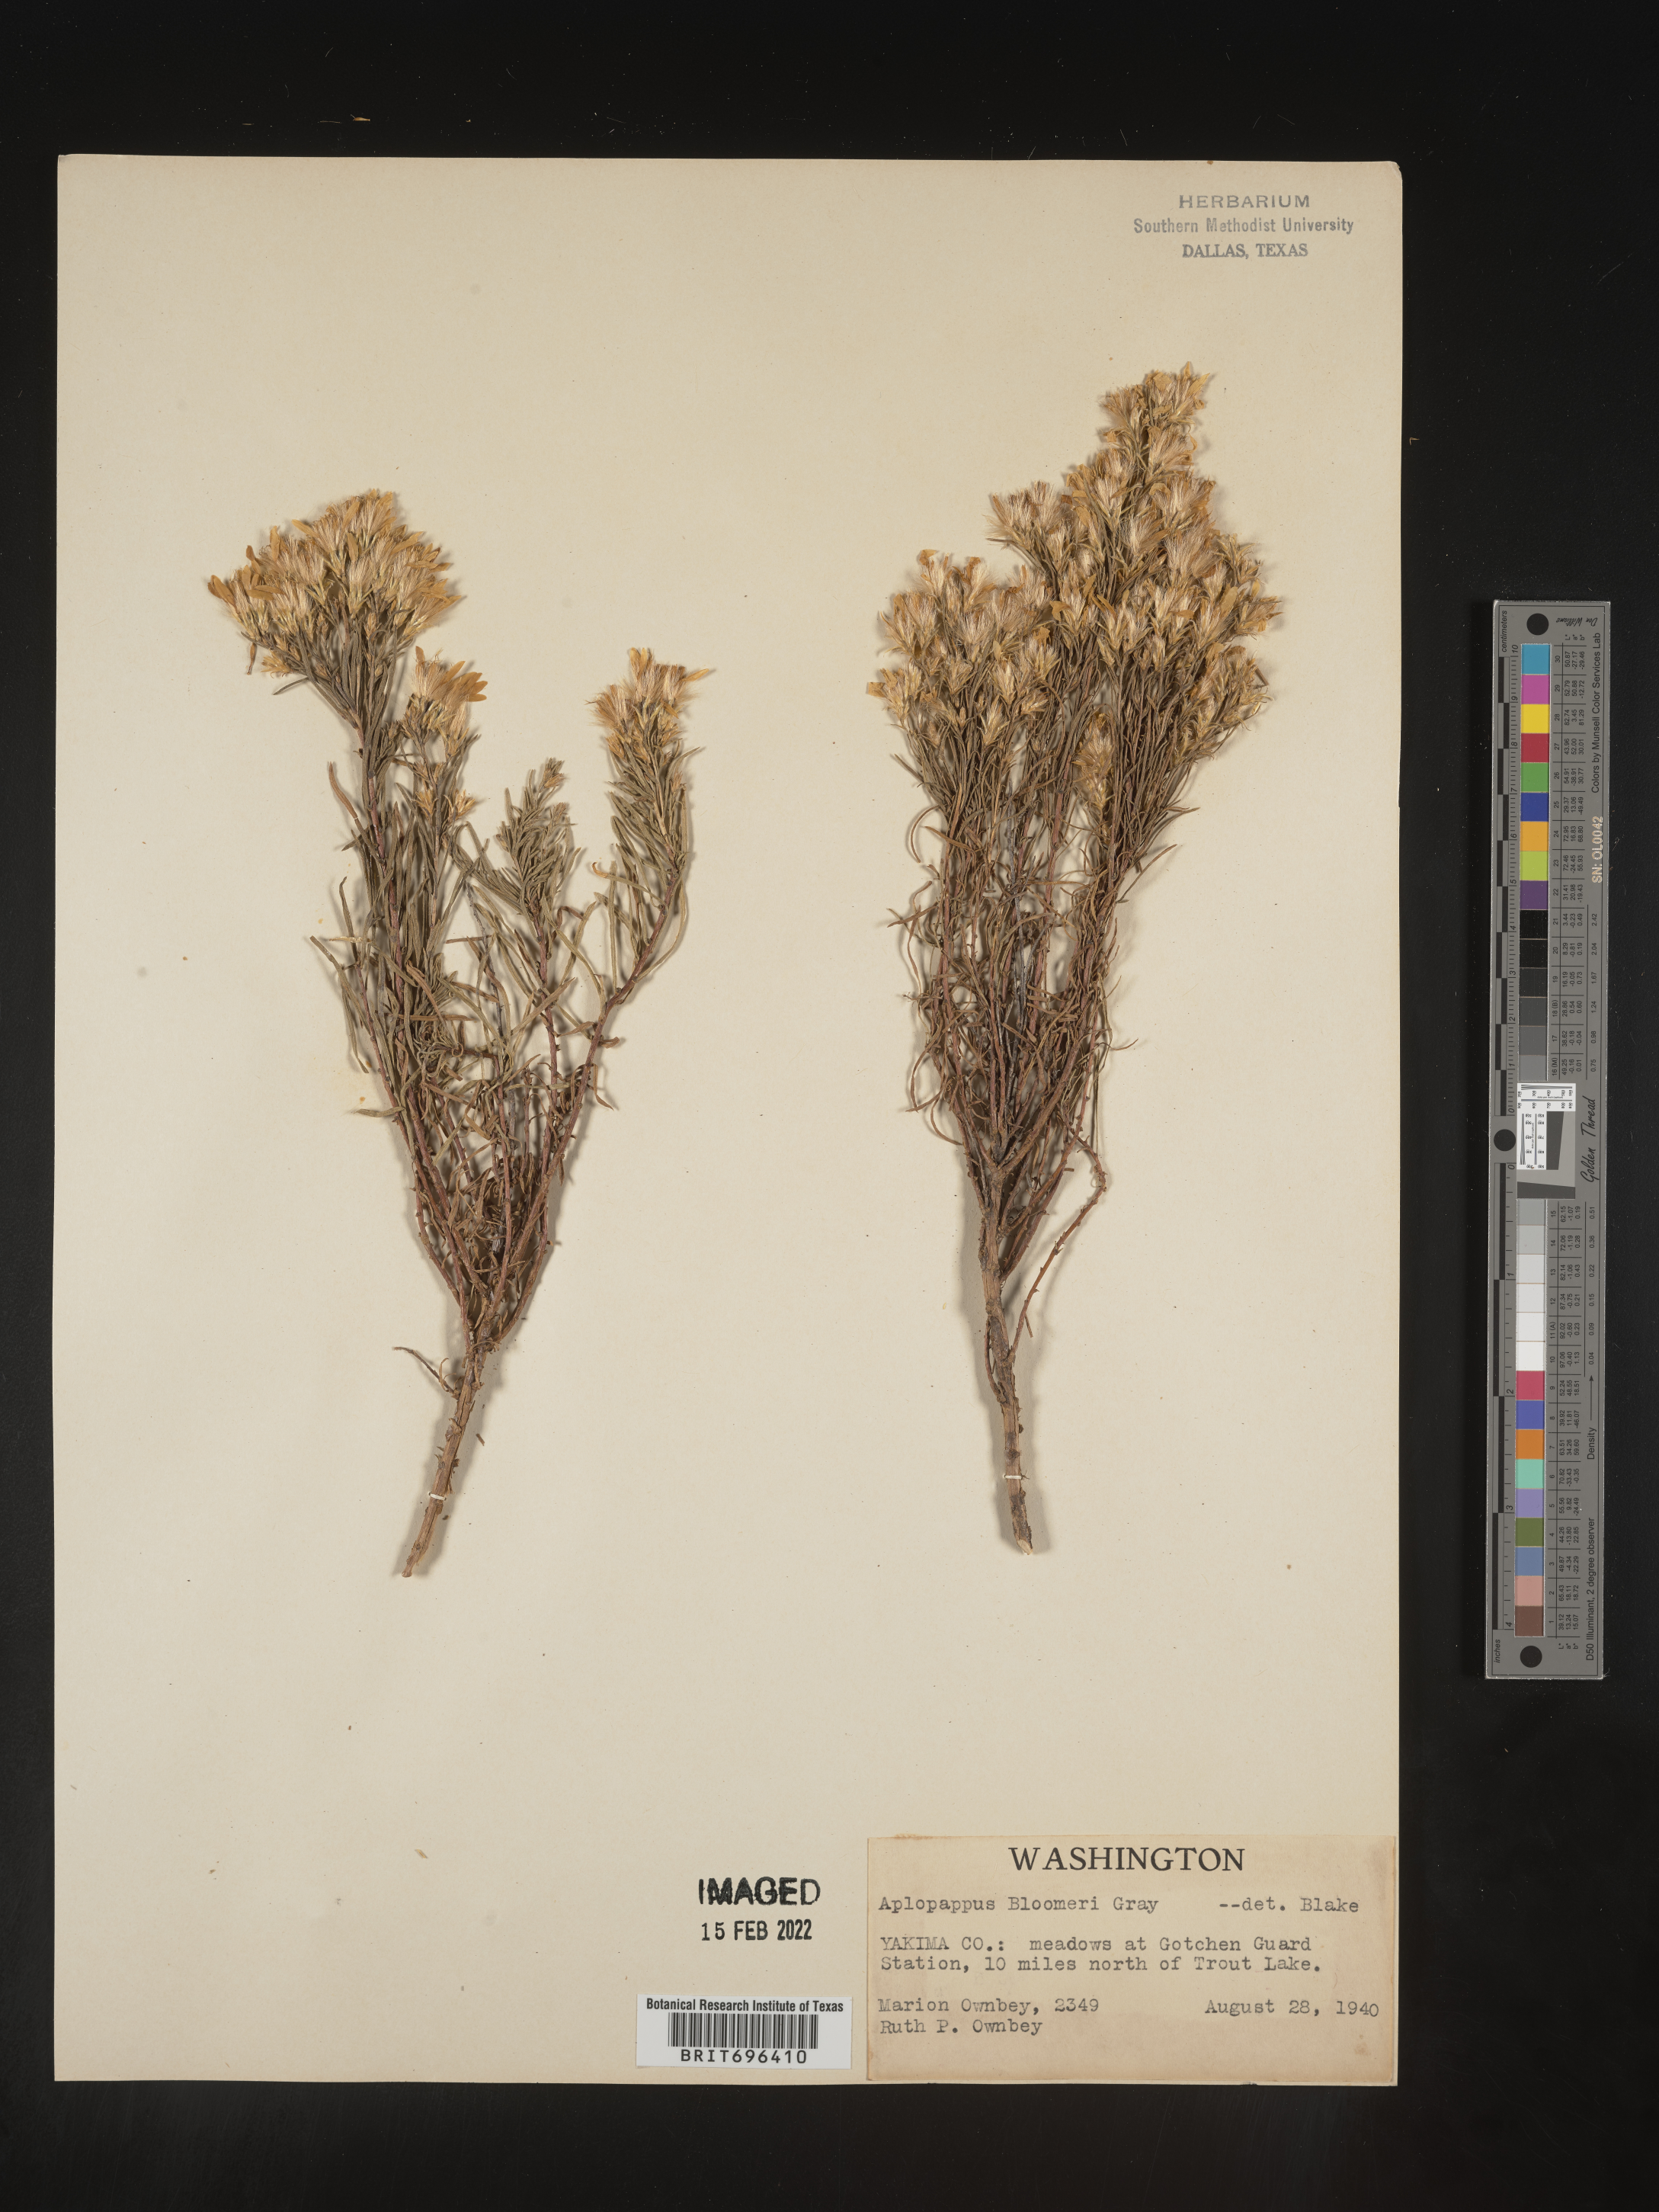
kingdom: Plantae
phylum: Tracheophyta
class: Magnoliopsida
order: Asterales
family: Asteraceae
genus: Ericameria
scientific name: Ericameria bloomeri
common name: Bloomer's goldenbush
